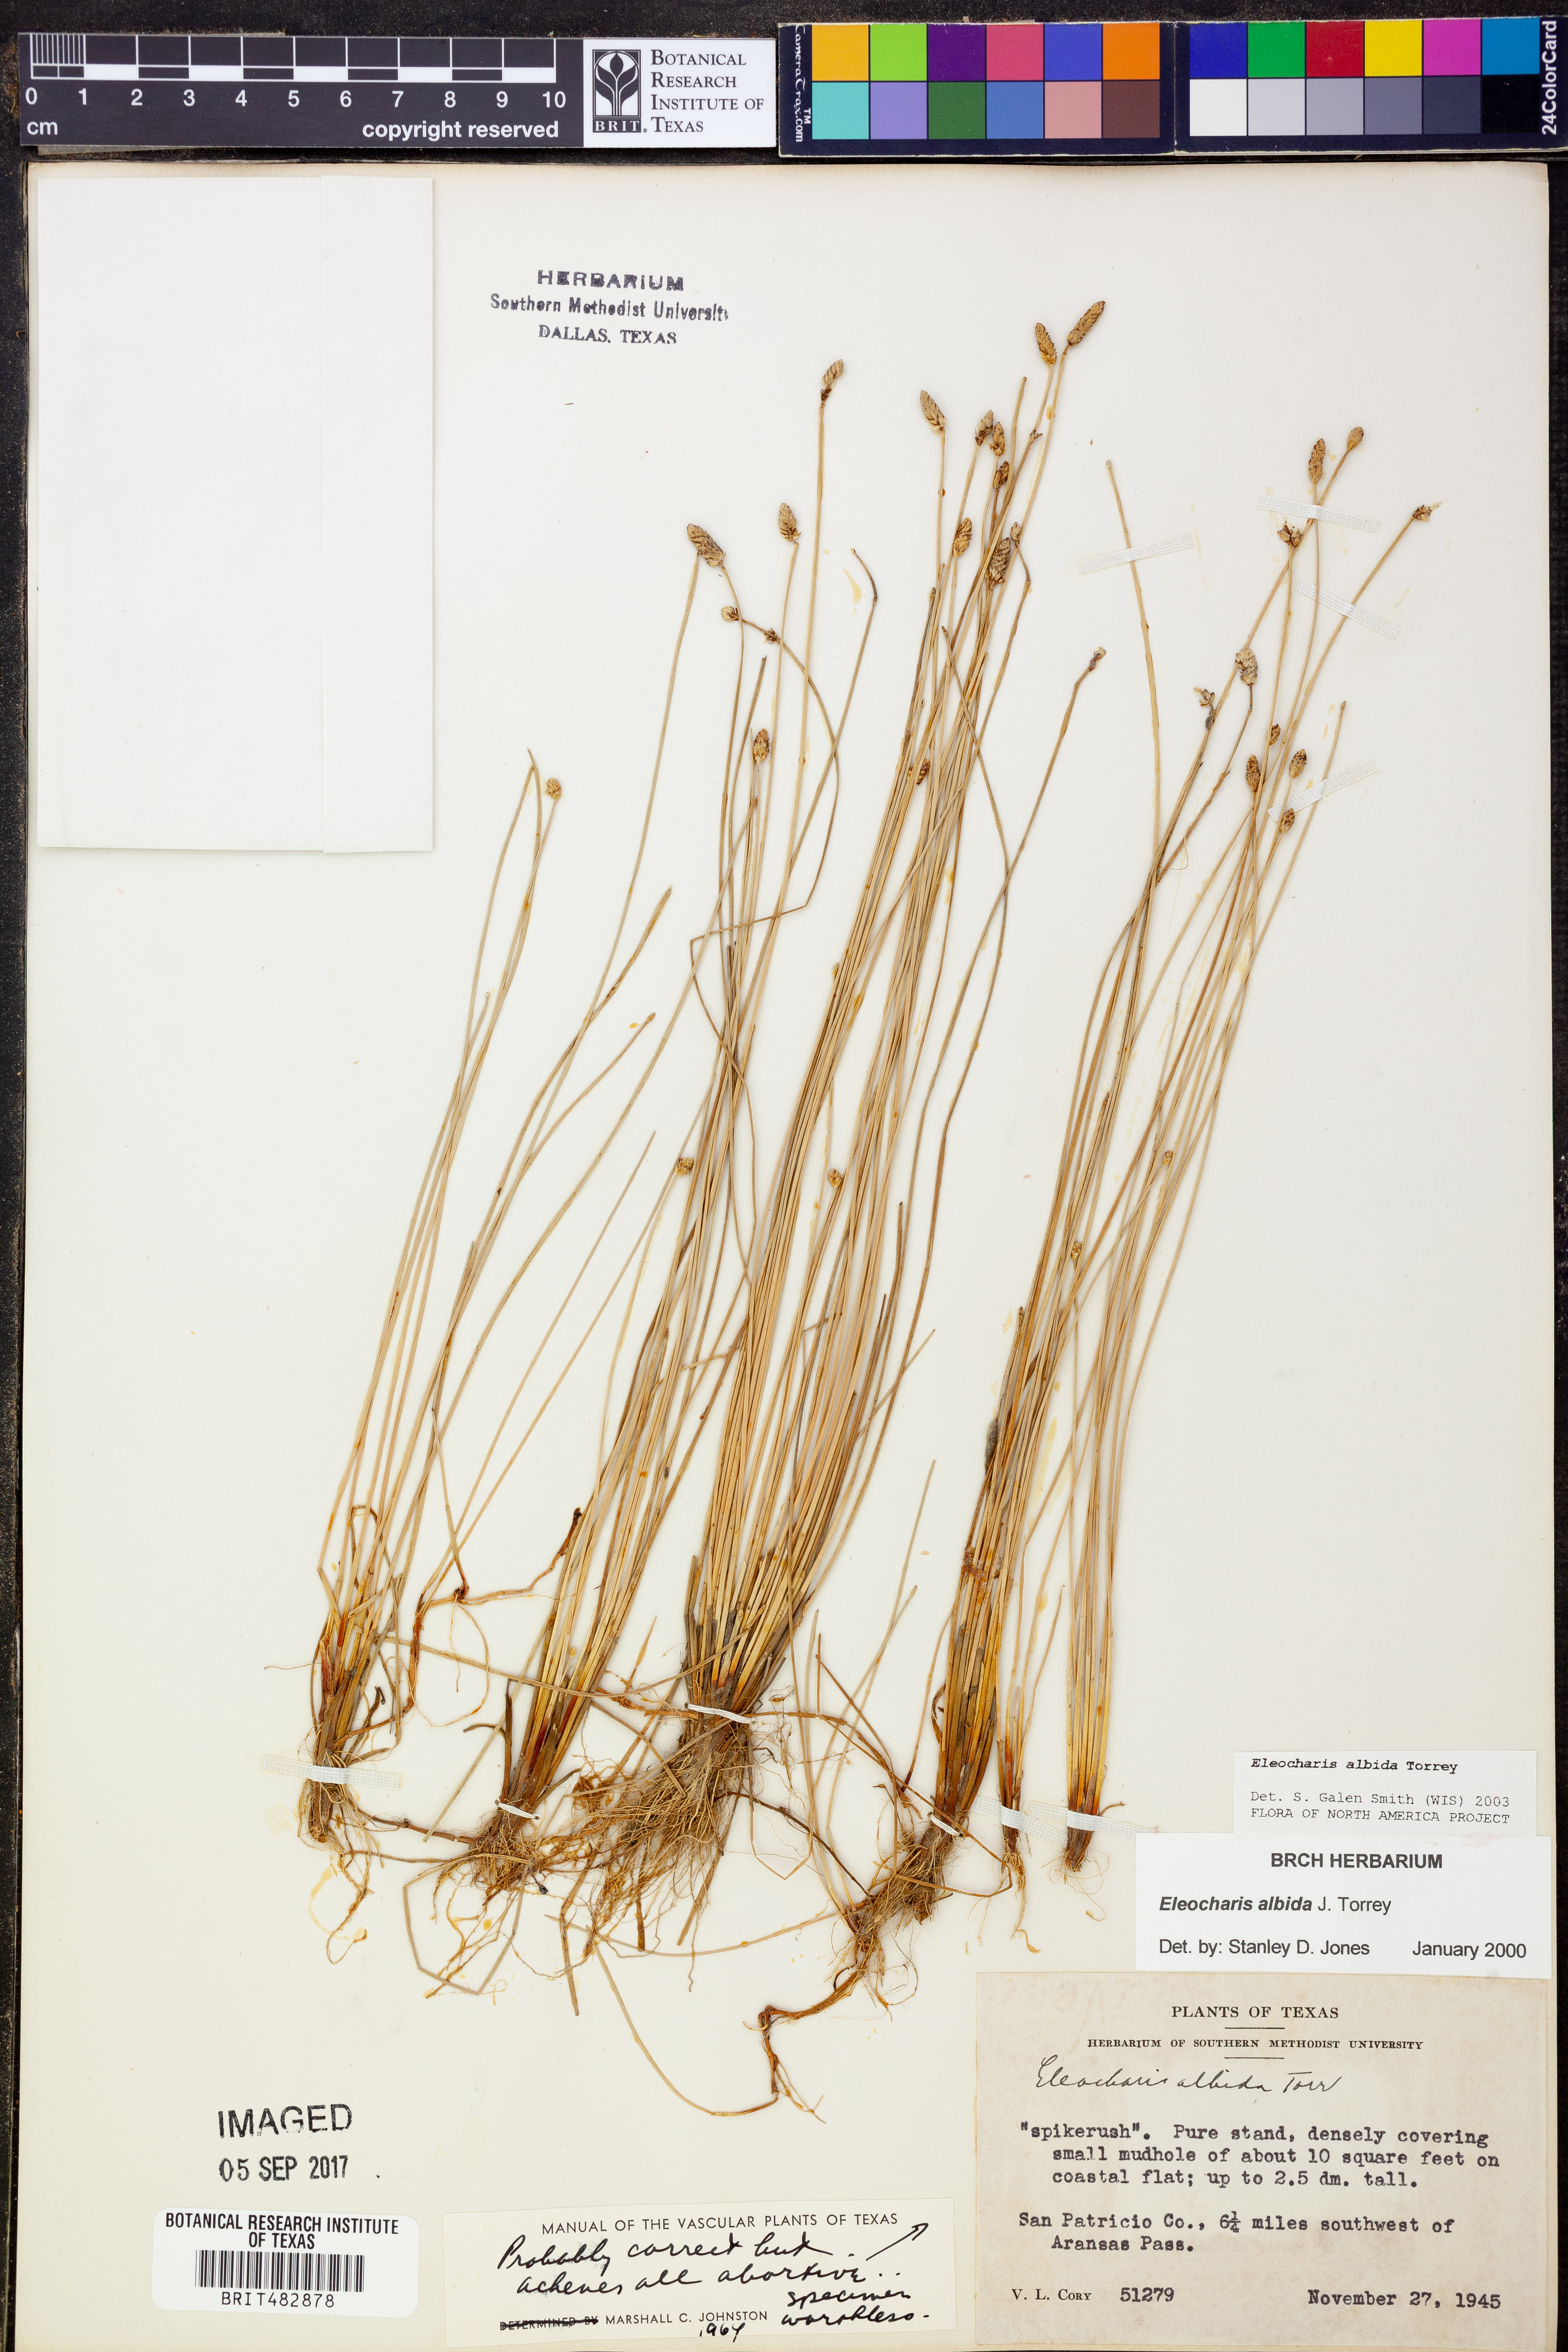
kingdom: Plantae
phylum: Tracheophyta
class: Liliopsida
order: Poales
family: Cyperaceae
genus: Eleocharis
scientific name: Eleocharis albida
